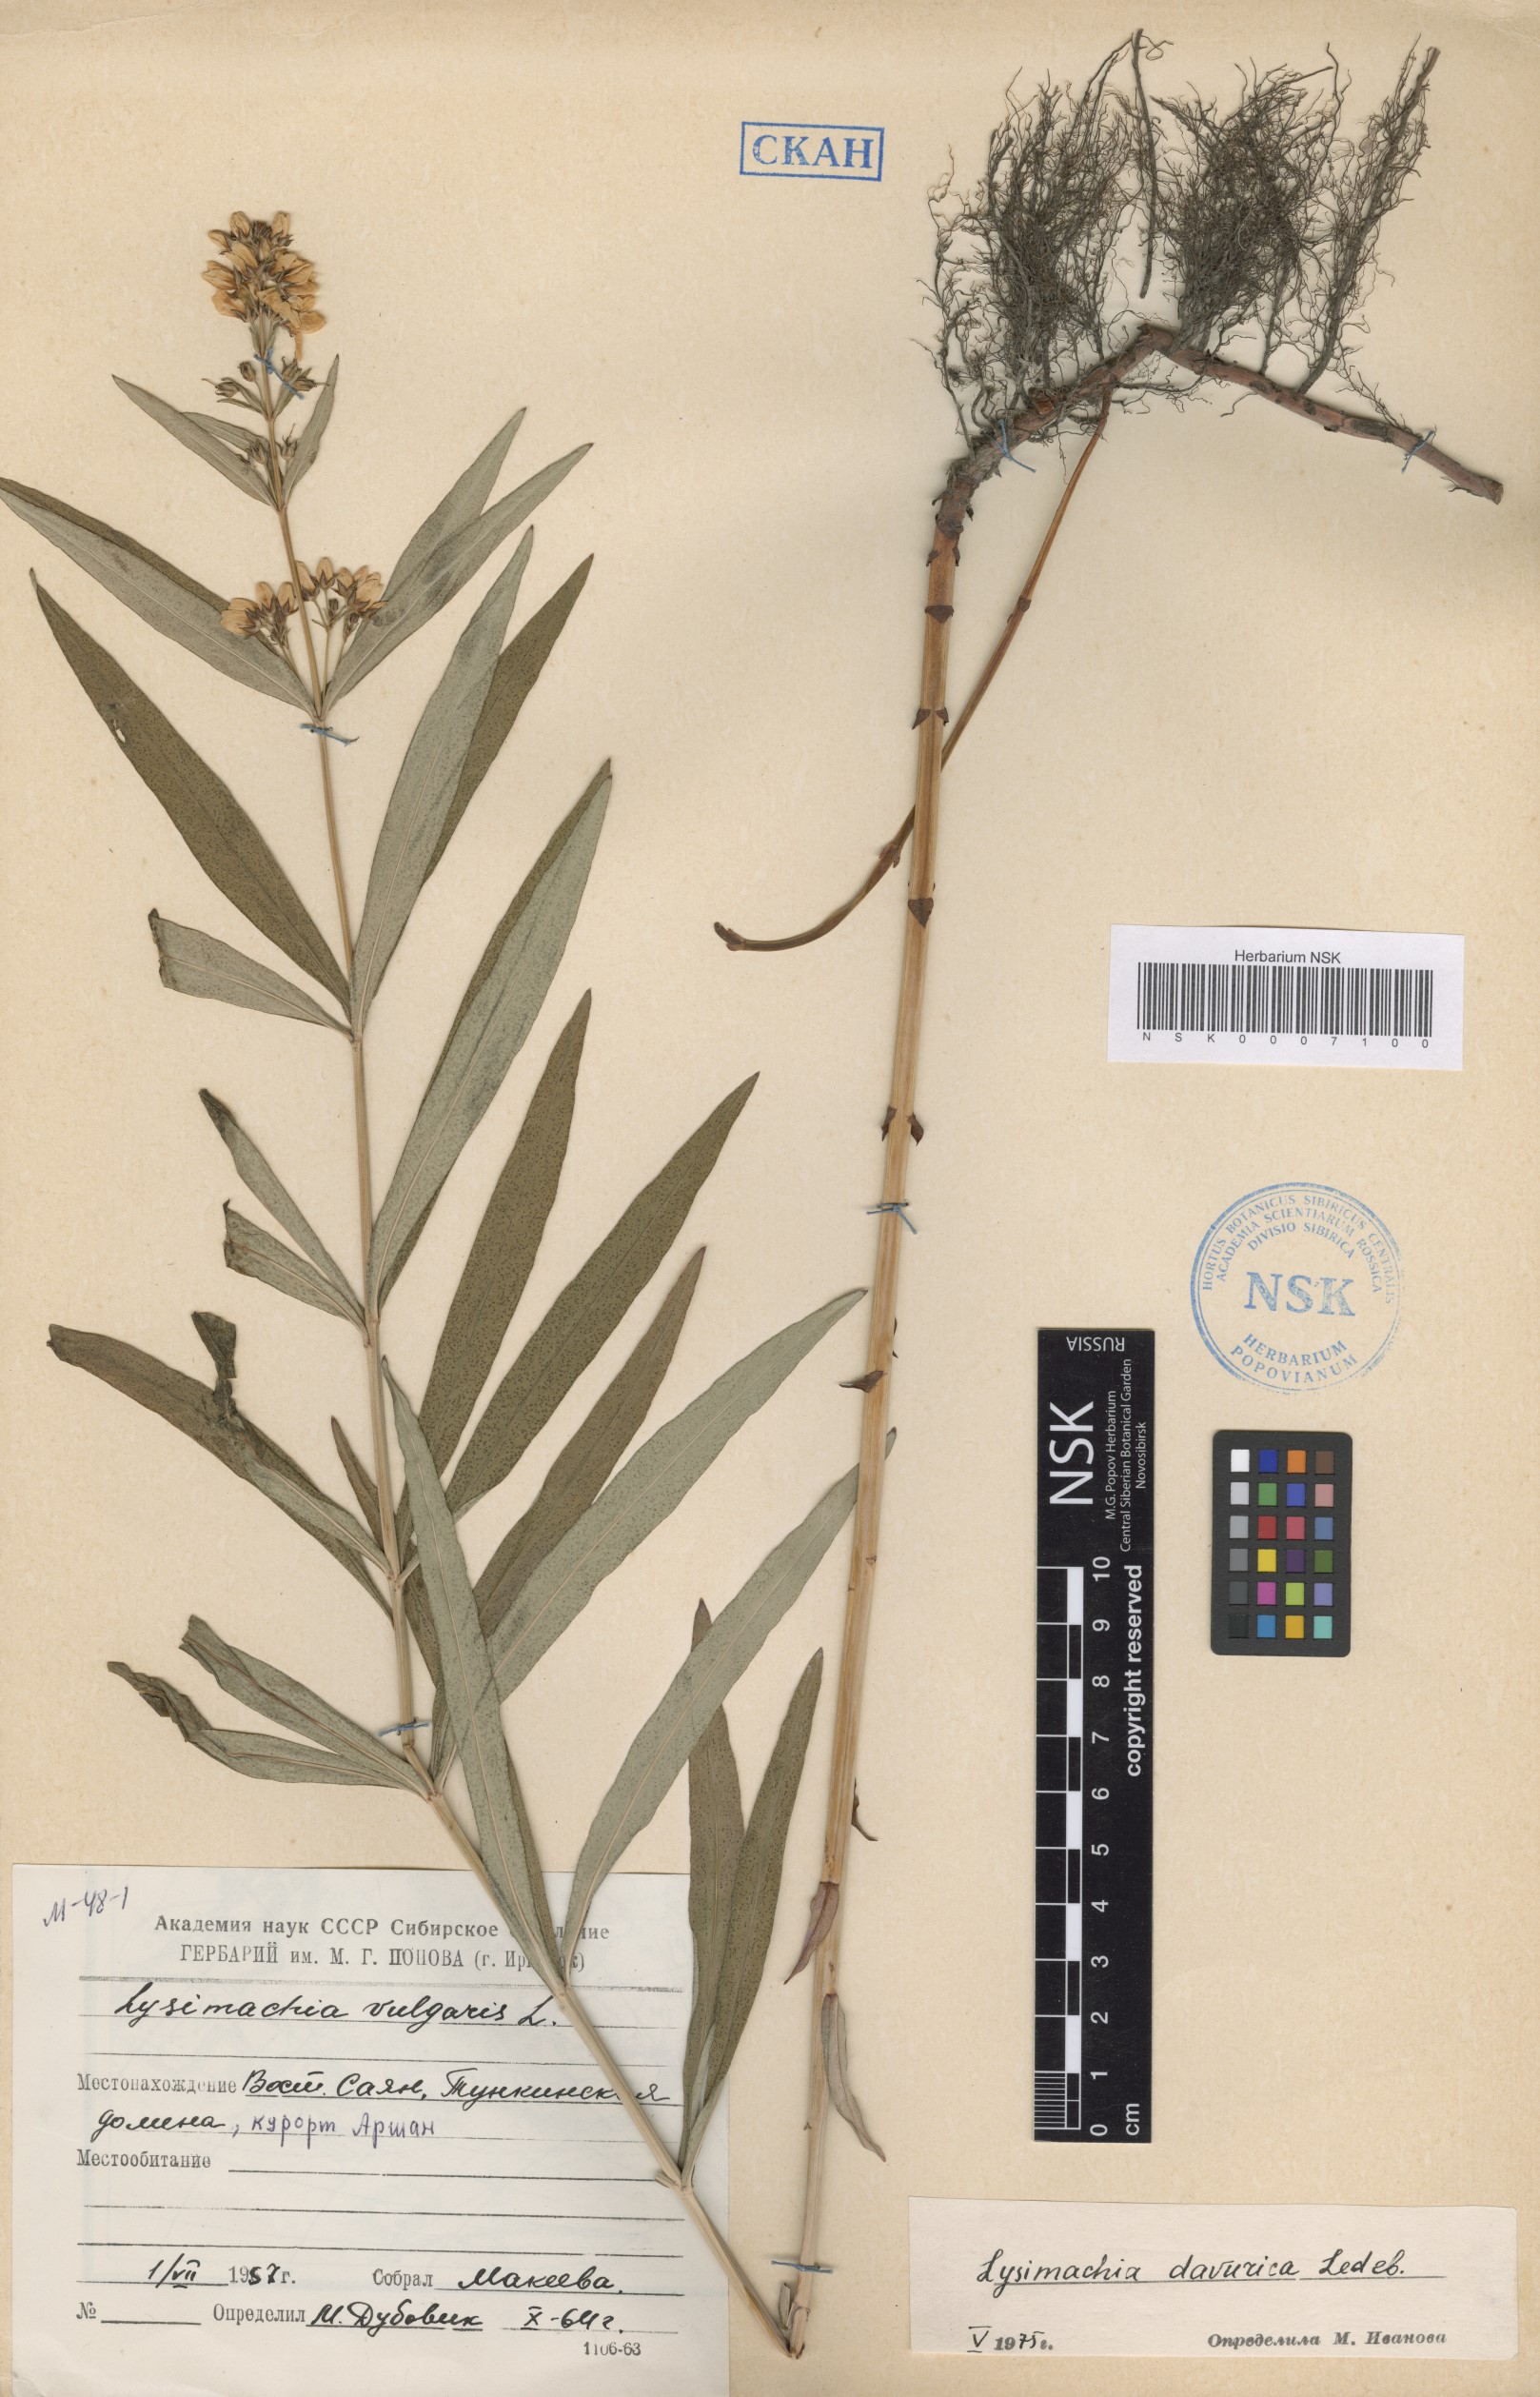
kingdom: Plantae
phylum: Tracheophyta
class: Magnoliopsida
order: Ericales
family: Primulaceae
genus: Lysimachia
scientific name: Lysimachia davurica
